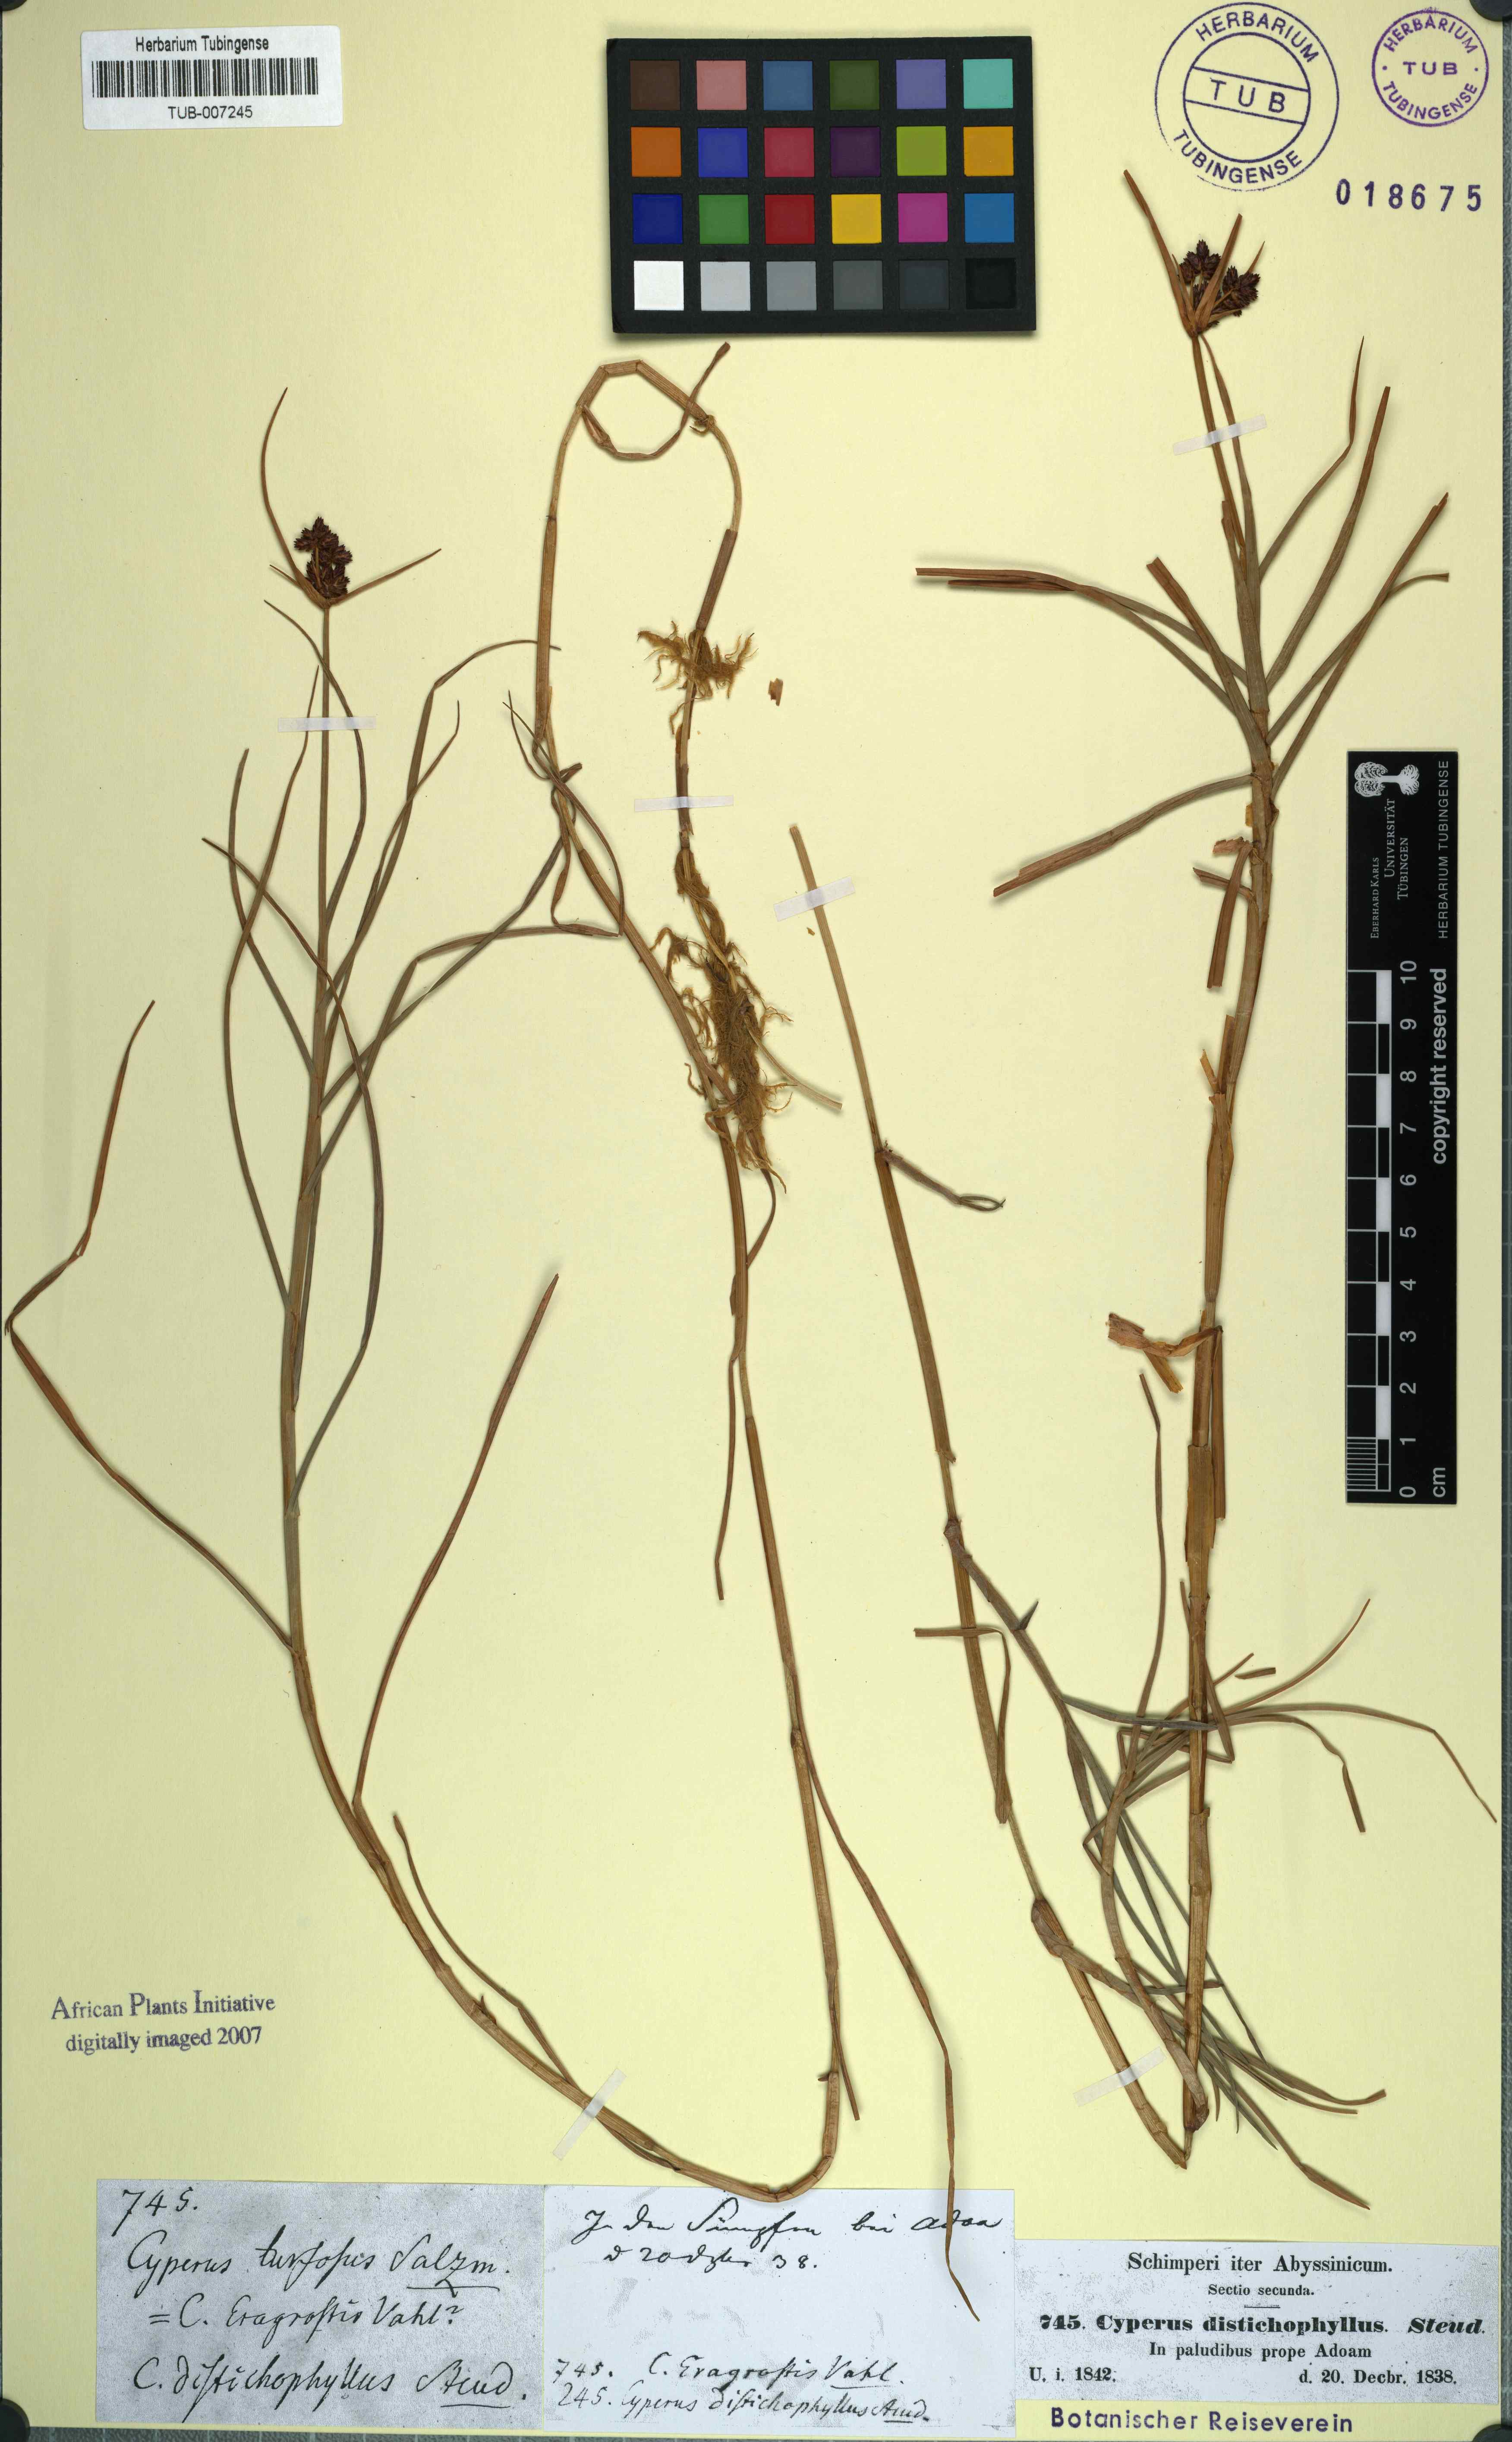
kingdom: Plantae
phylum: Tracheophyta
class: Liliopsida
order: Poales
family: Cyperaceae
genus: Cyperus
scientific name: Cyperus mundii
